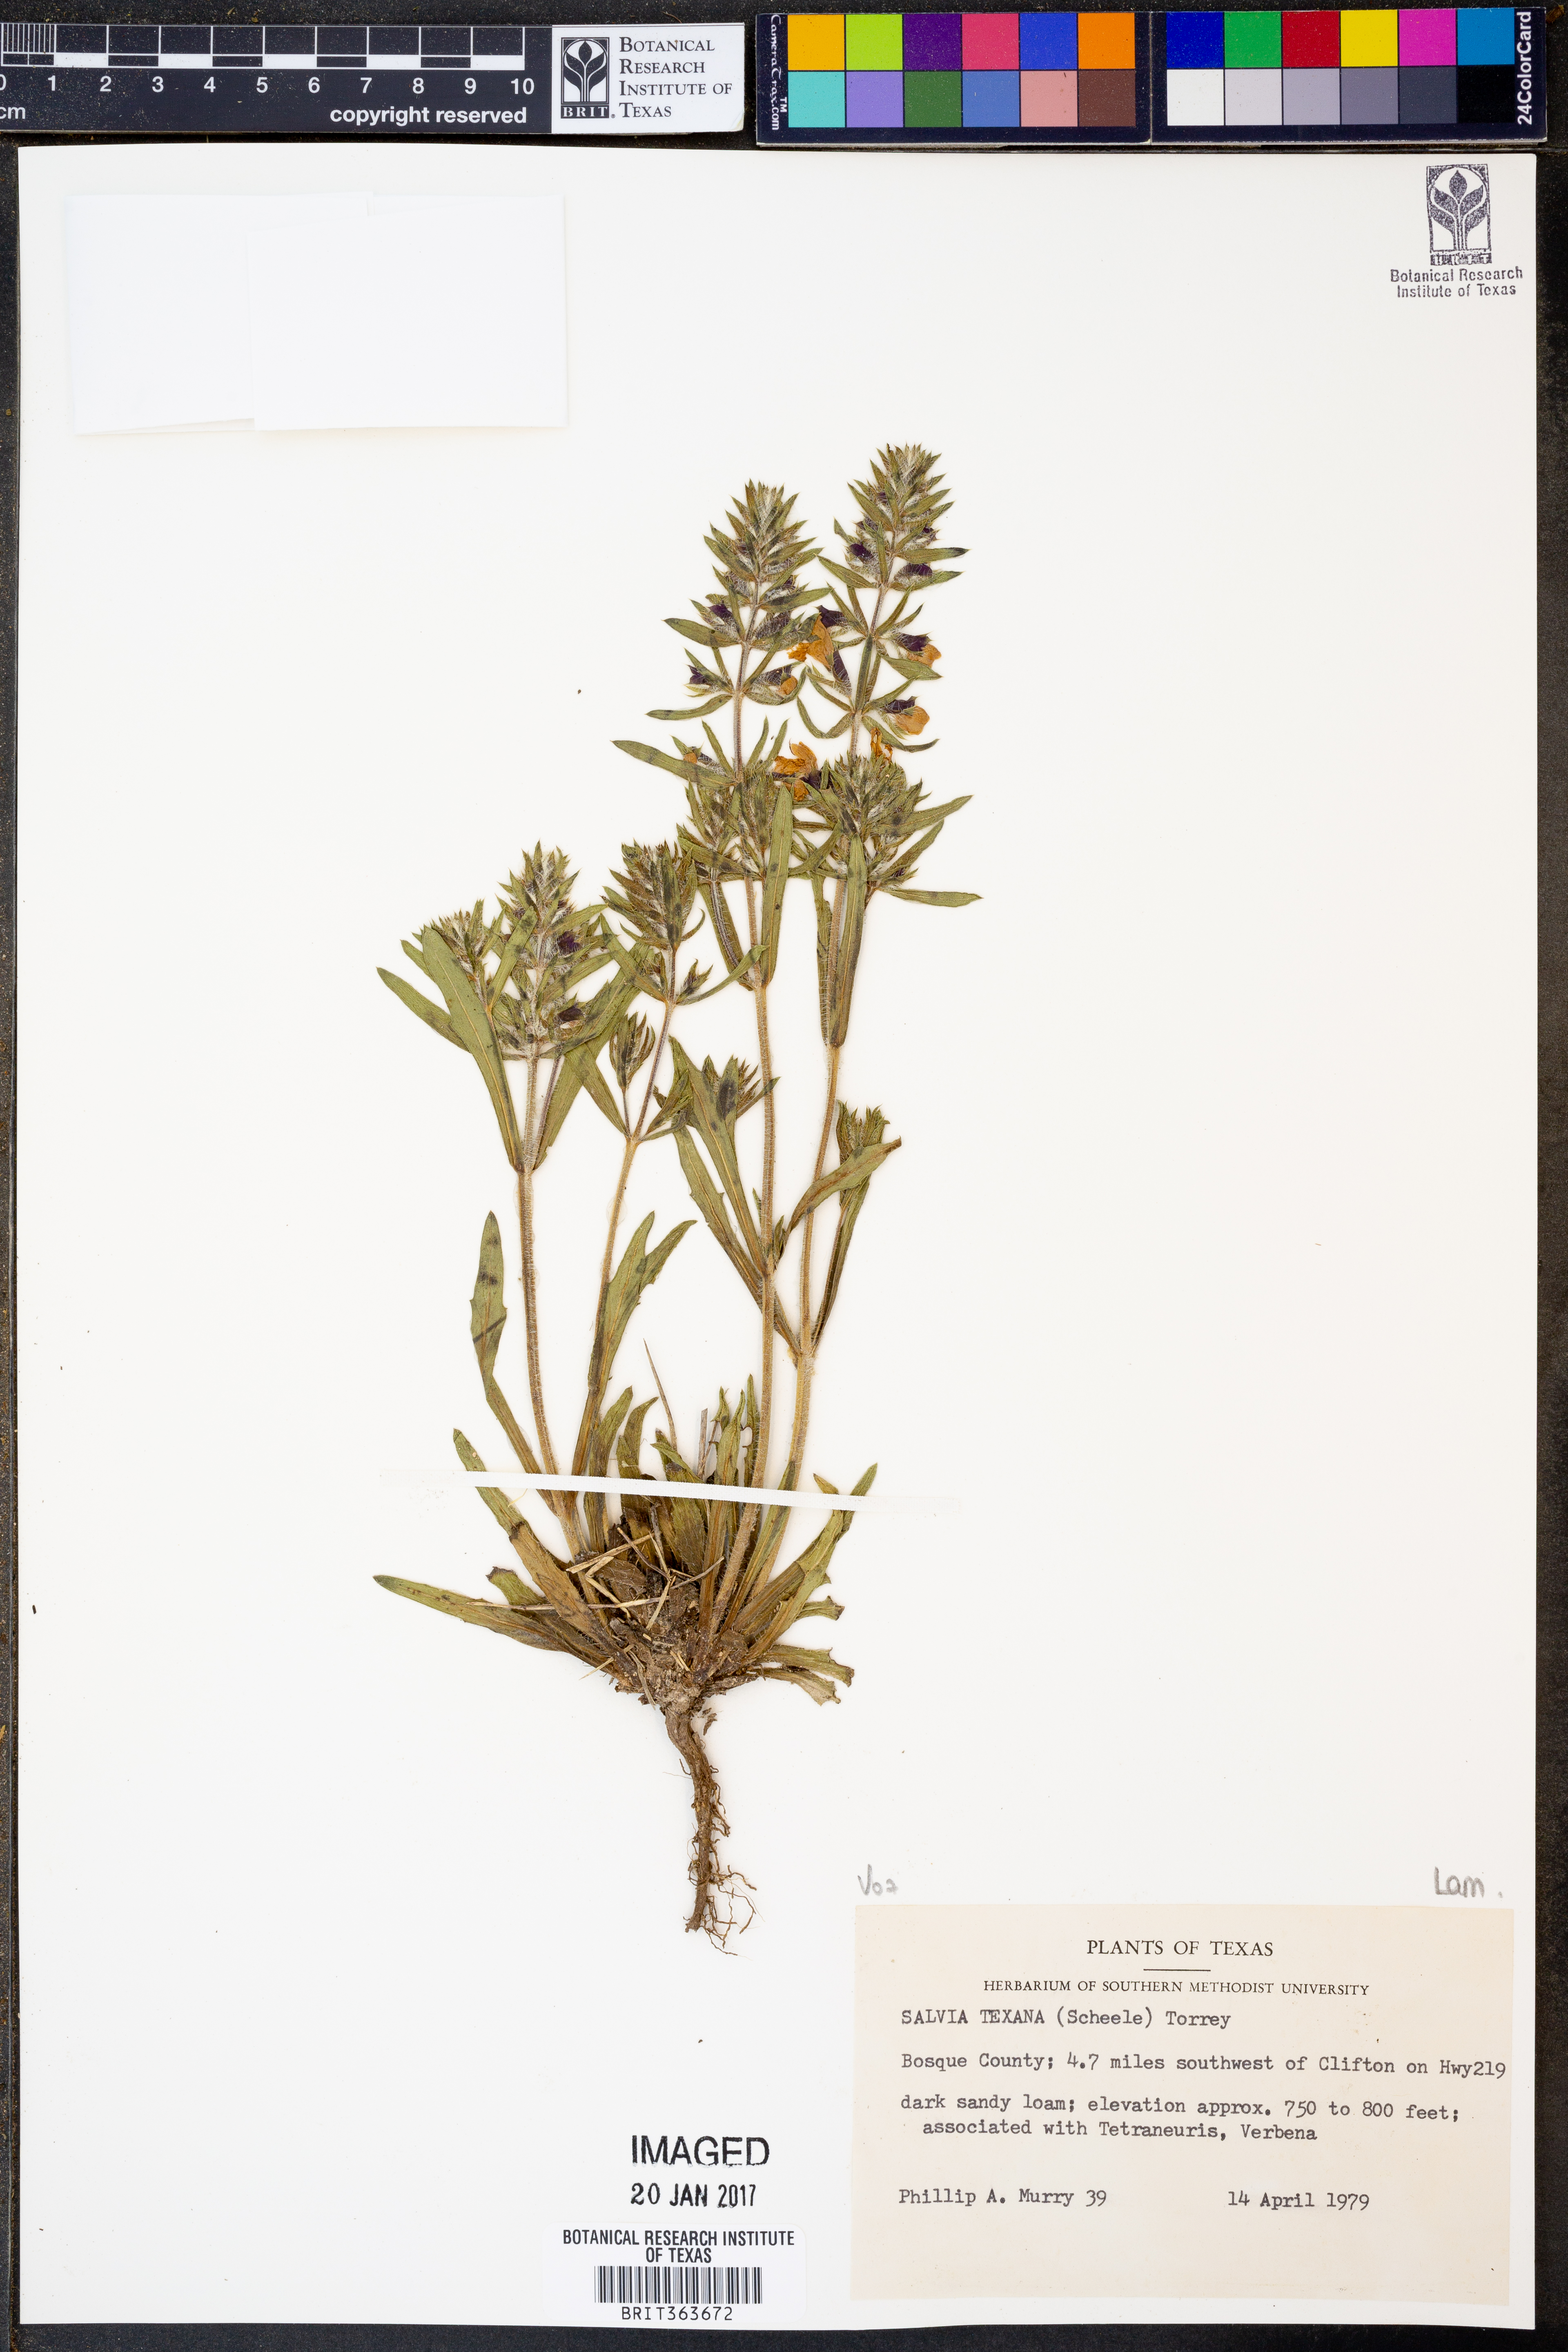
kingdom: Plantae
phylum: Tracheophyta
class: Magnoliopsida
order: Lamiales
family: Lamiaceae
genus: Salvia
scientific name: Salvia texana
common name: Texas sage
